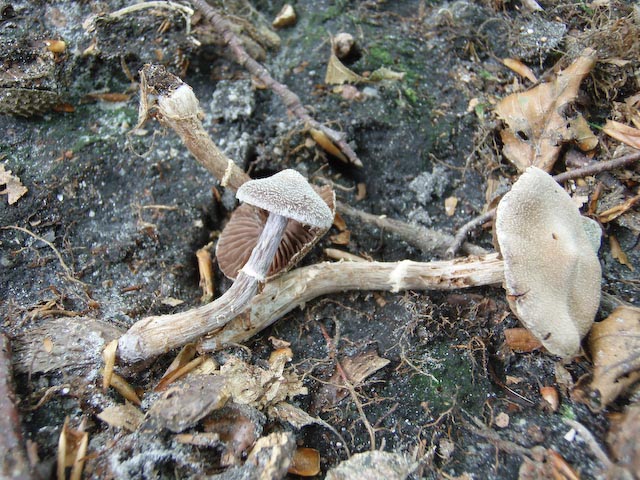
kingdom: Fungi
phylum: Basidiomycota
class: Agaricomycetes
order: Agaricales
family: Cortinariaceae
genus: Cortinarius
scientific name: Cortinarius
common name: pelargonie-slørhat
